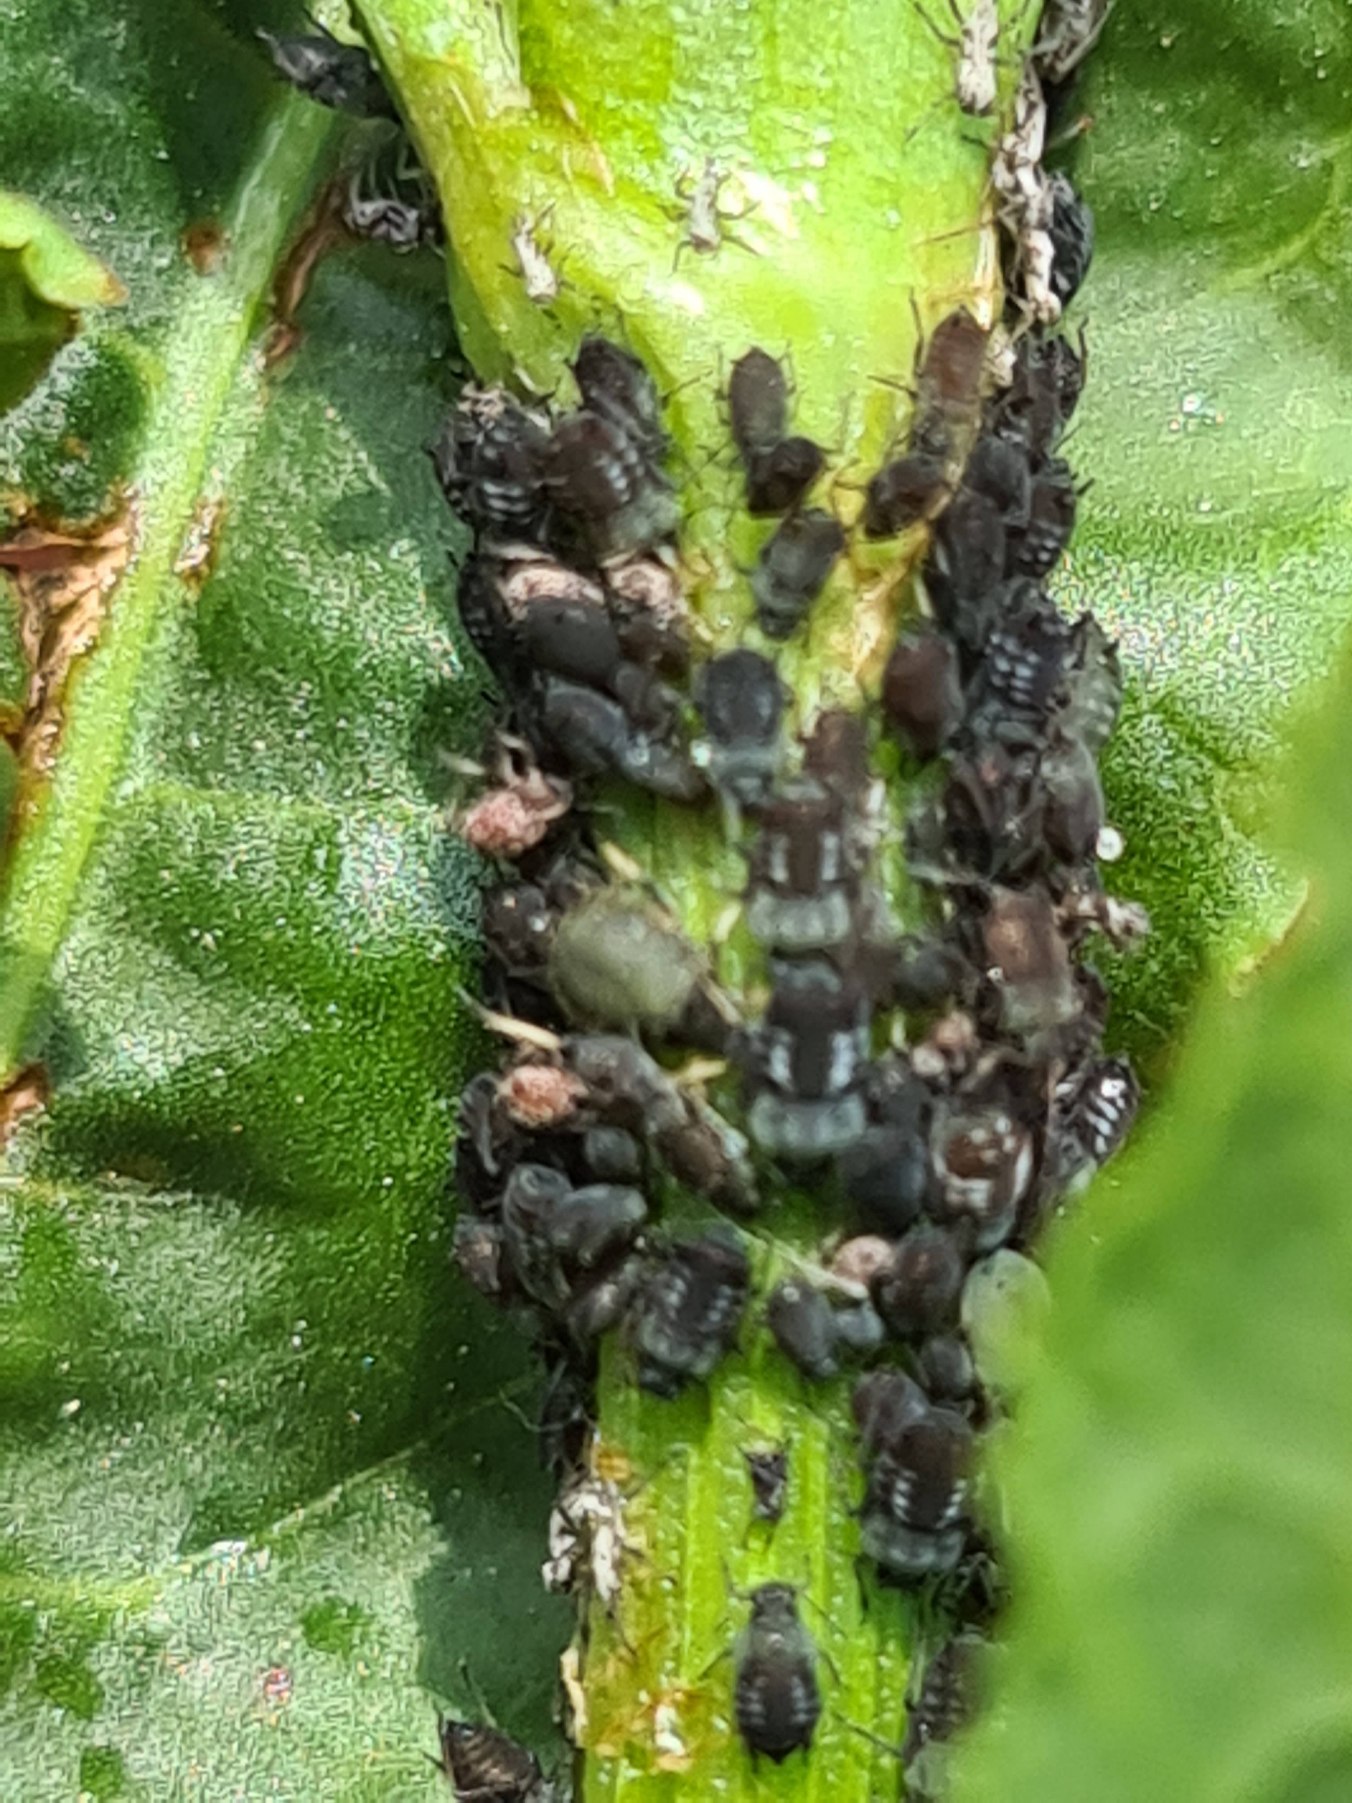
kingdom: Animalia
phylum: Arthropoda
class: Insecta
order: Hemiptera
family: Aphididae
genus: Aphis
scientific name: Aphis fabae
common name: Bedebladlus
